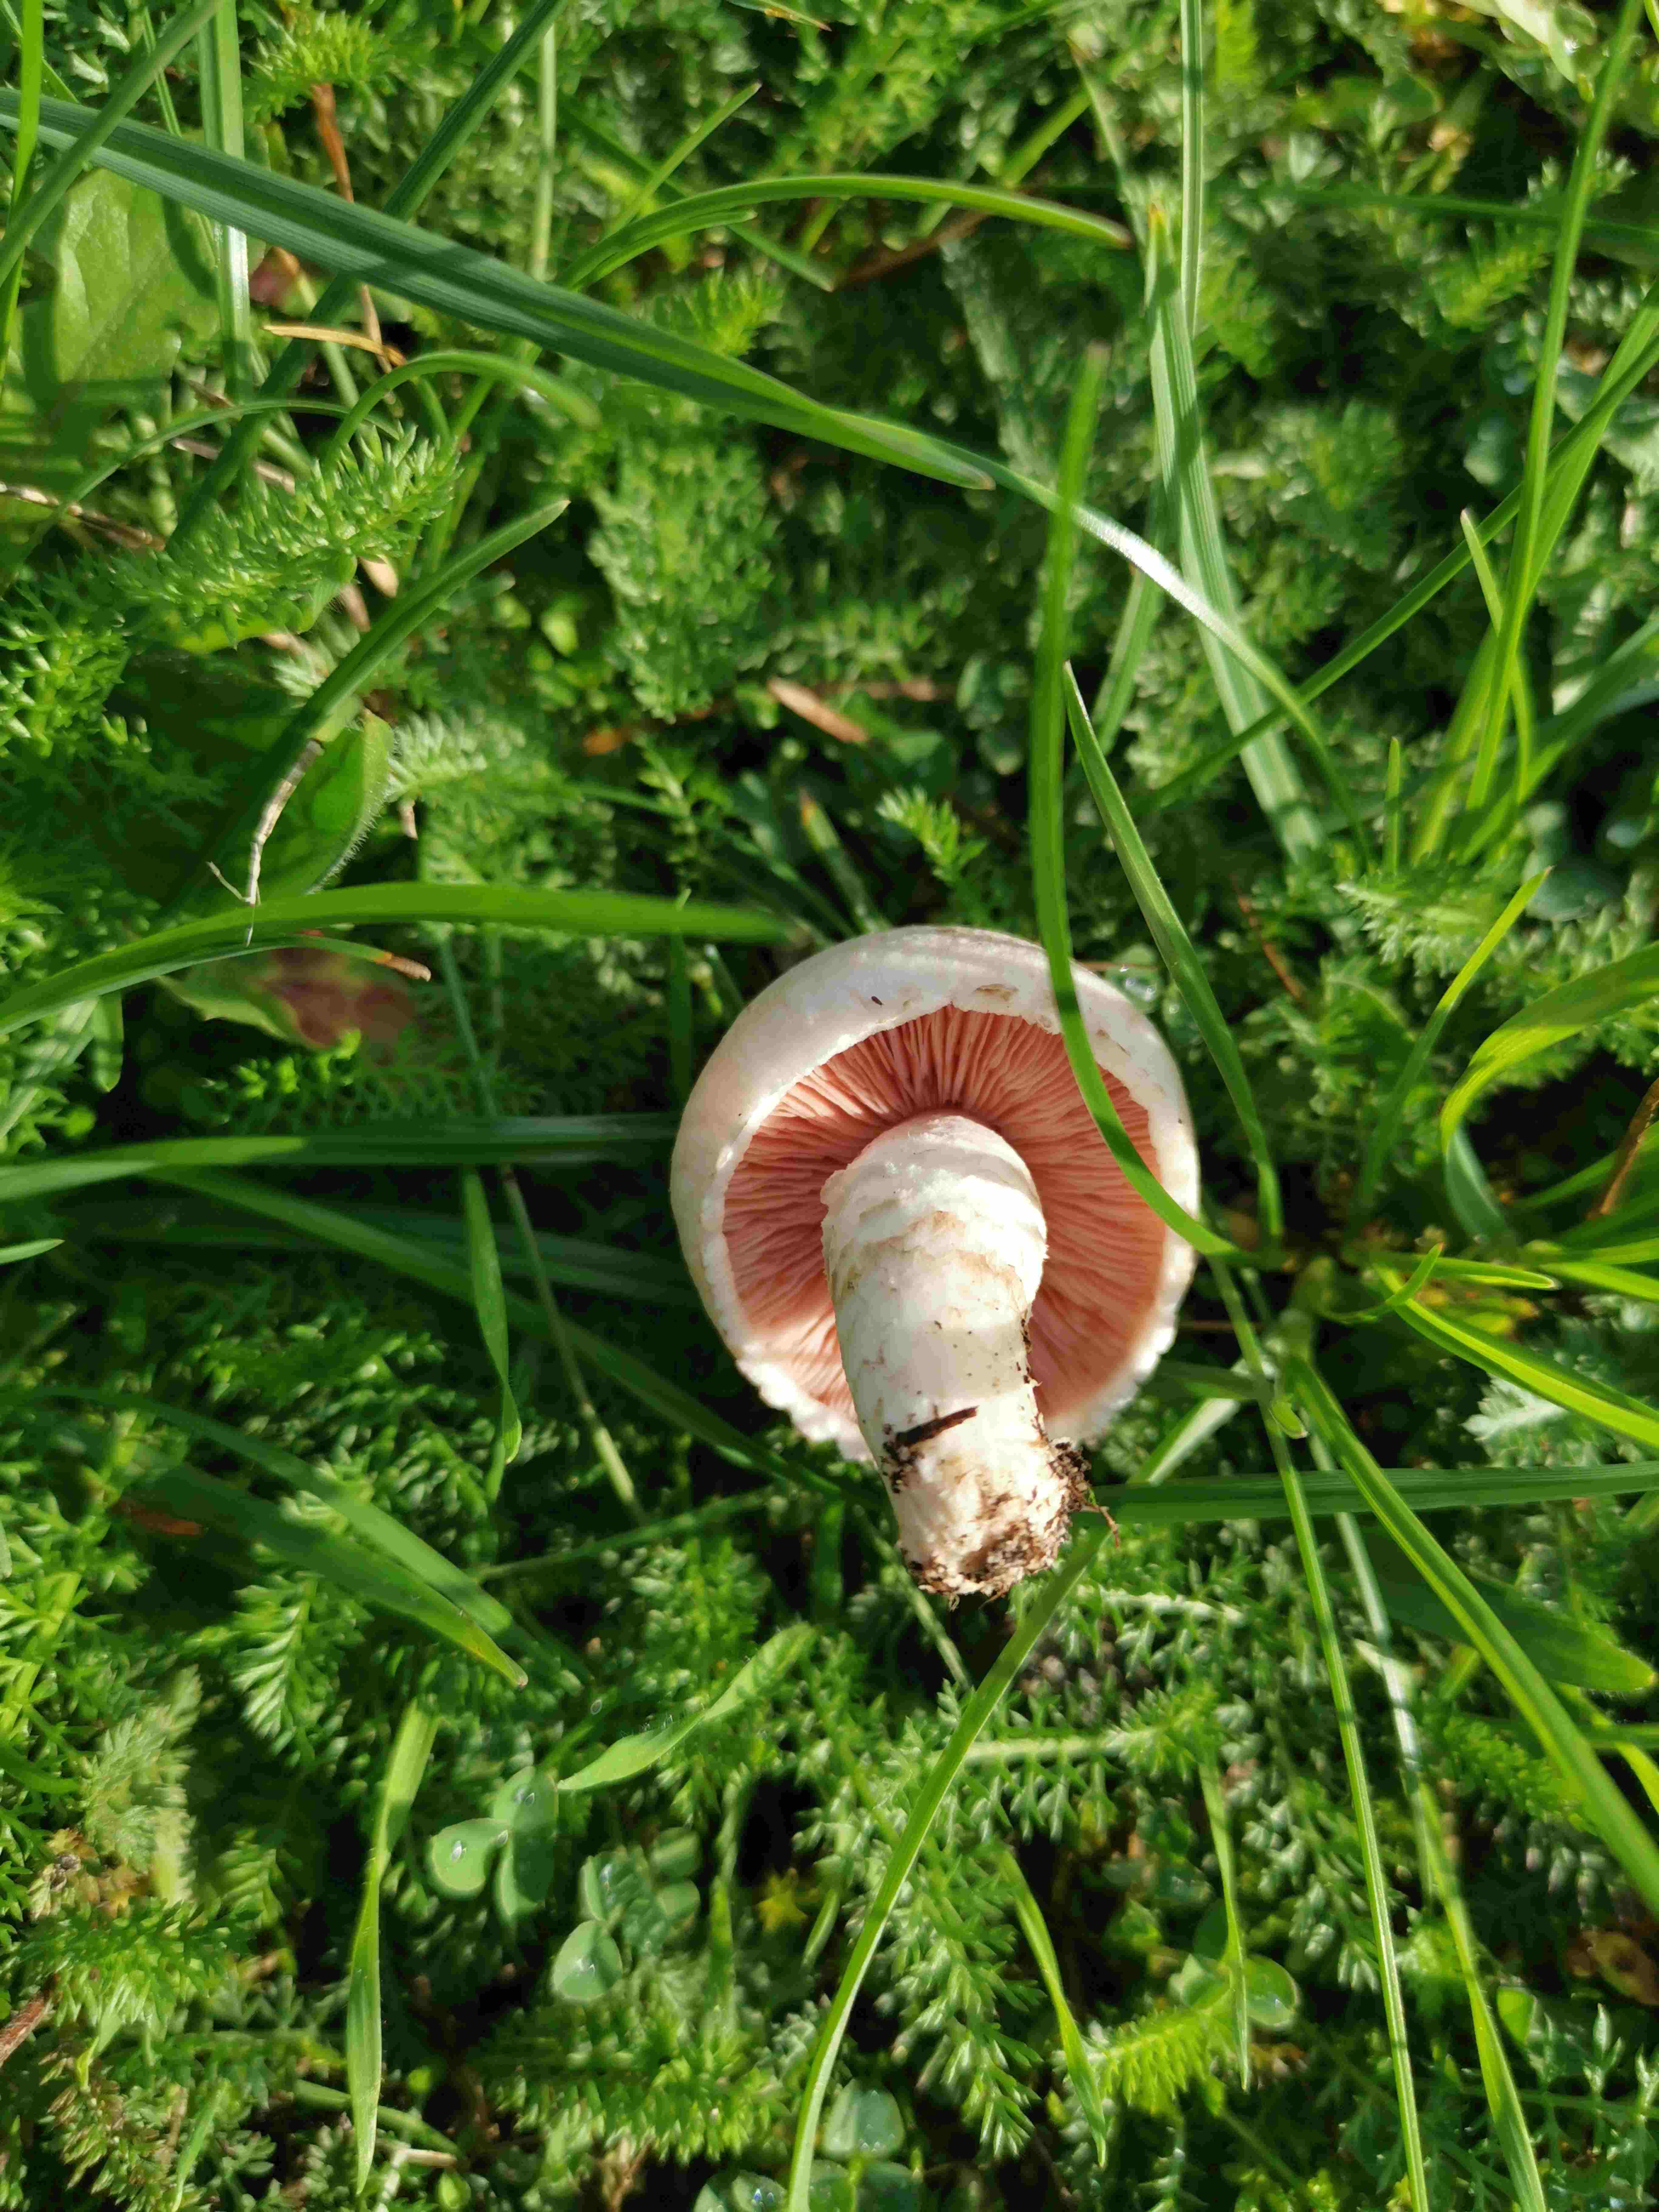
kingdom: Fungi
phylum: Basidiomycota
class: Agaricomycetes
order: Agaricales
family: Agaricaceae
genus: Agaricus
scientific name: Agaricus
